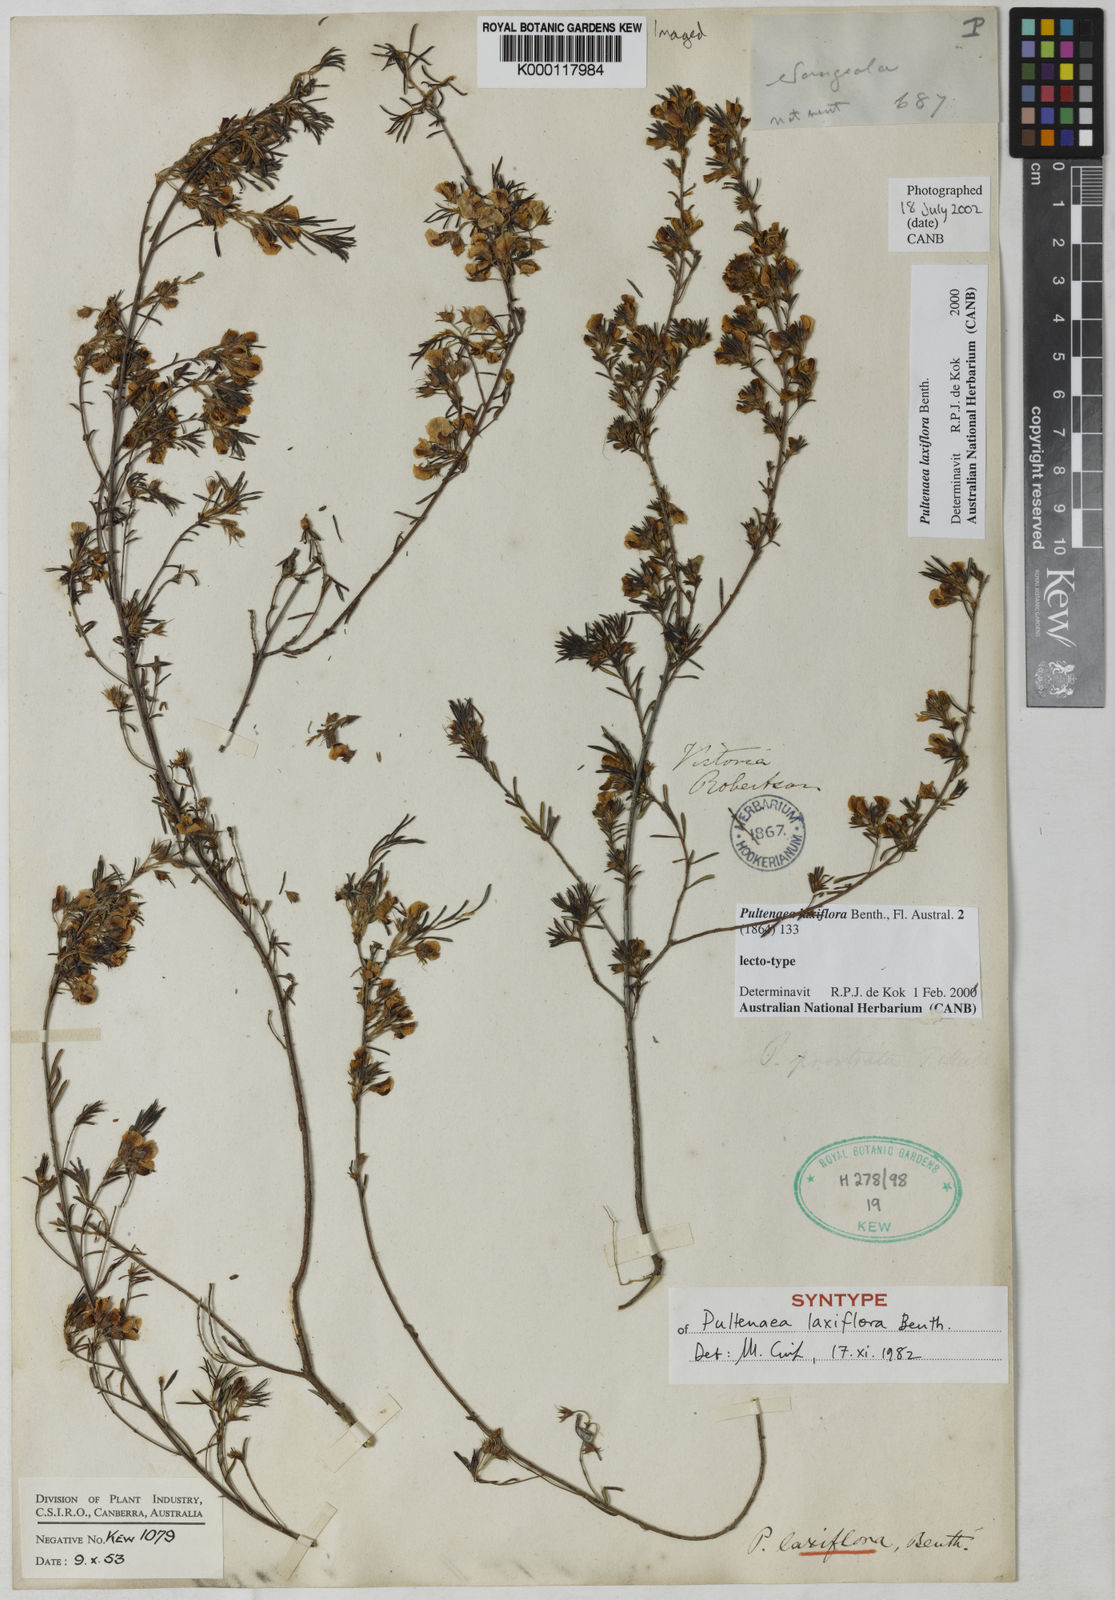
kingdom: Plantae
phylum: Tracheophyta
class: Magnoliopsida
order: Fabales
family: Fabaceae
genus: Pultenaea
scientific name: Pultenaea laxiflora
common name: Loose-flower bush-pea
